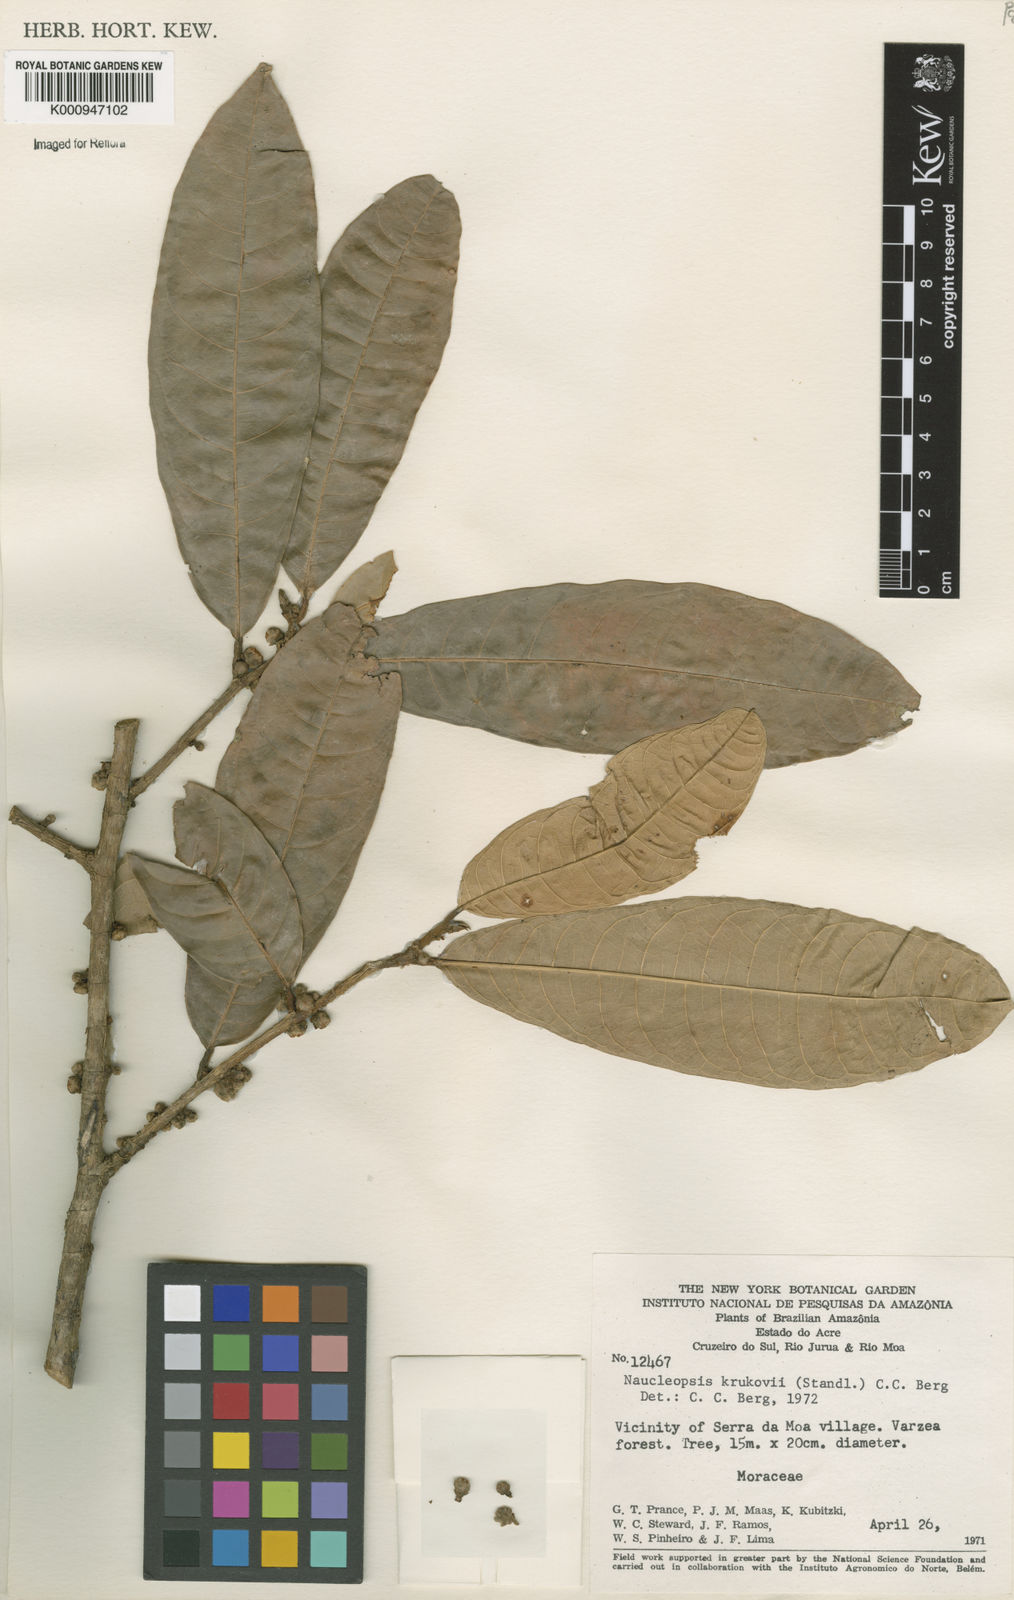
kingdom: Plantae
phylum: Tracheophyta
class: Magnoliopsida
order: Rosales
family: Moraceae
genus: Naucleopsis
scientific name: Naucleopsis krukovii
